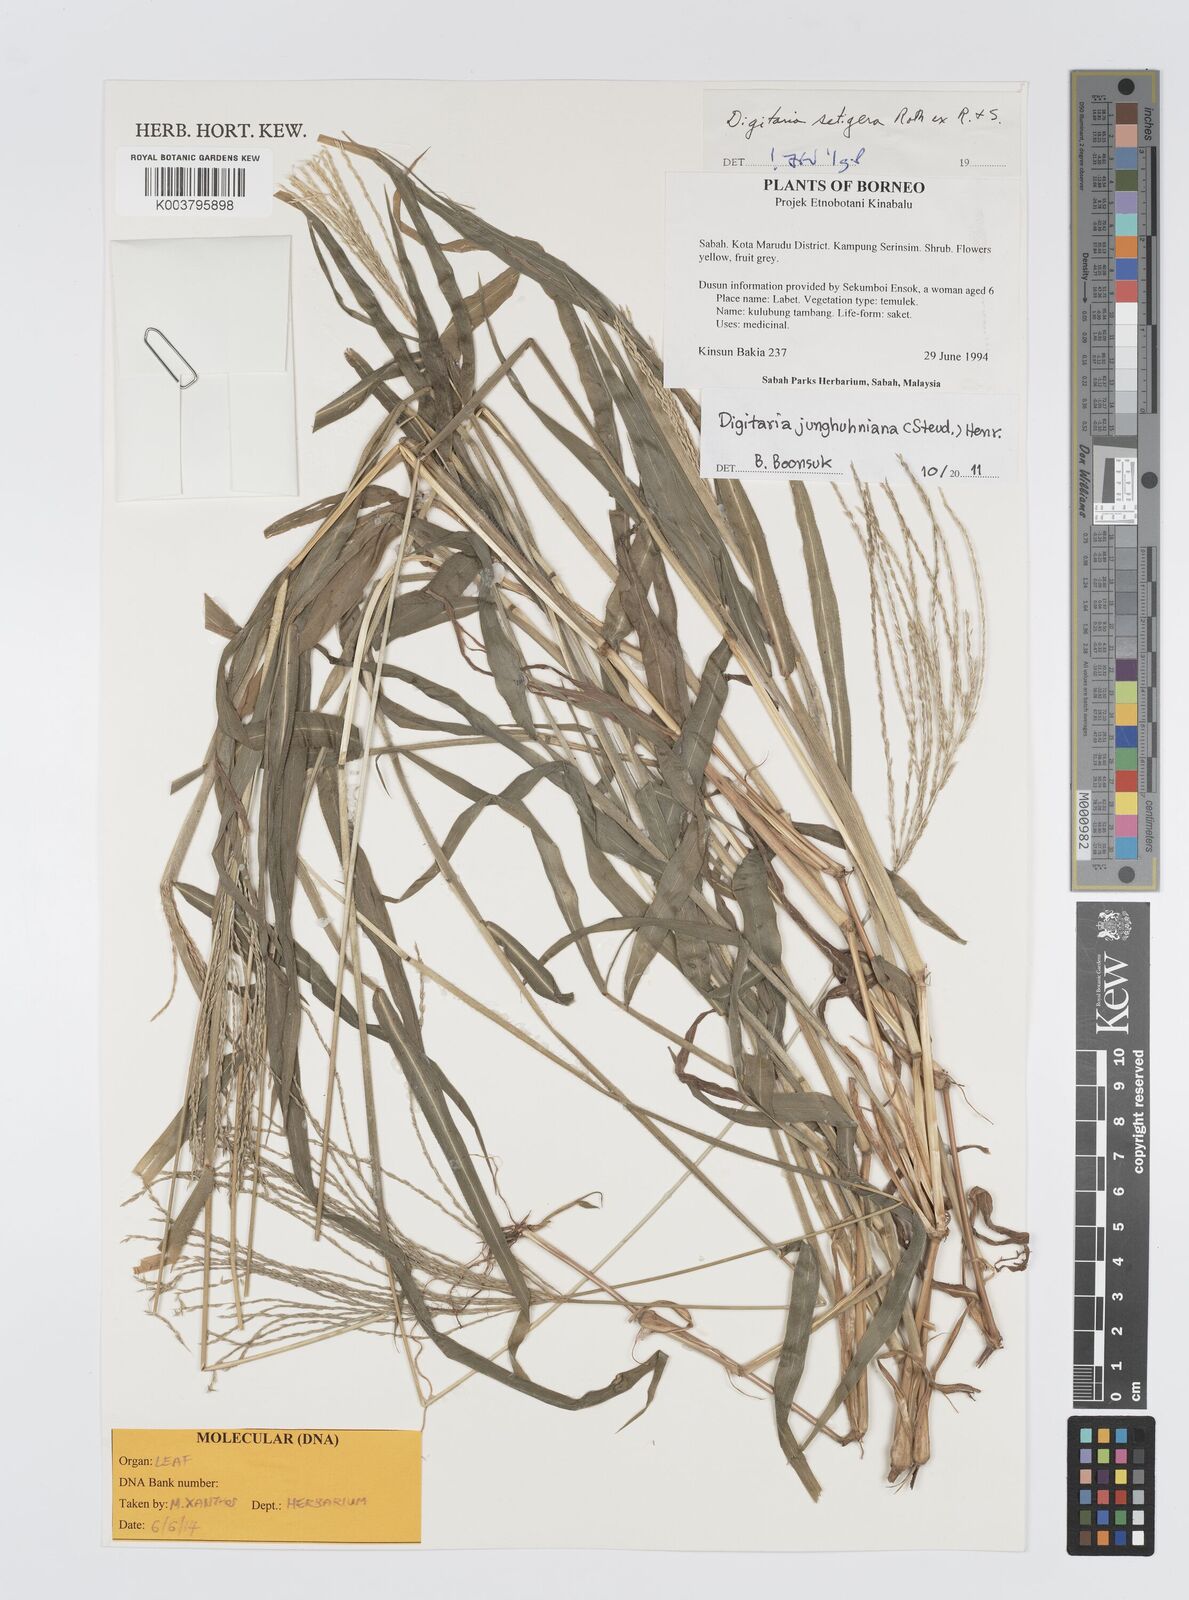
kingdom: Plantae
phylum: Tracheophyta
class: Liliopsida
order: Poales
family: Poaceae
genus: Digitaria
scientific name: Digitaria junghuhniana
